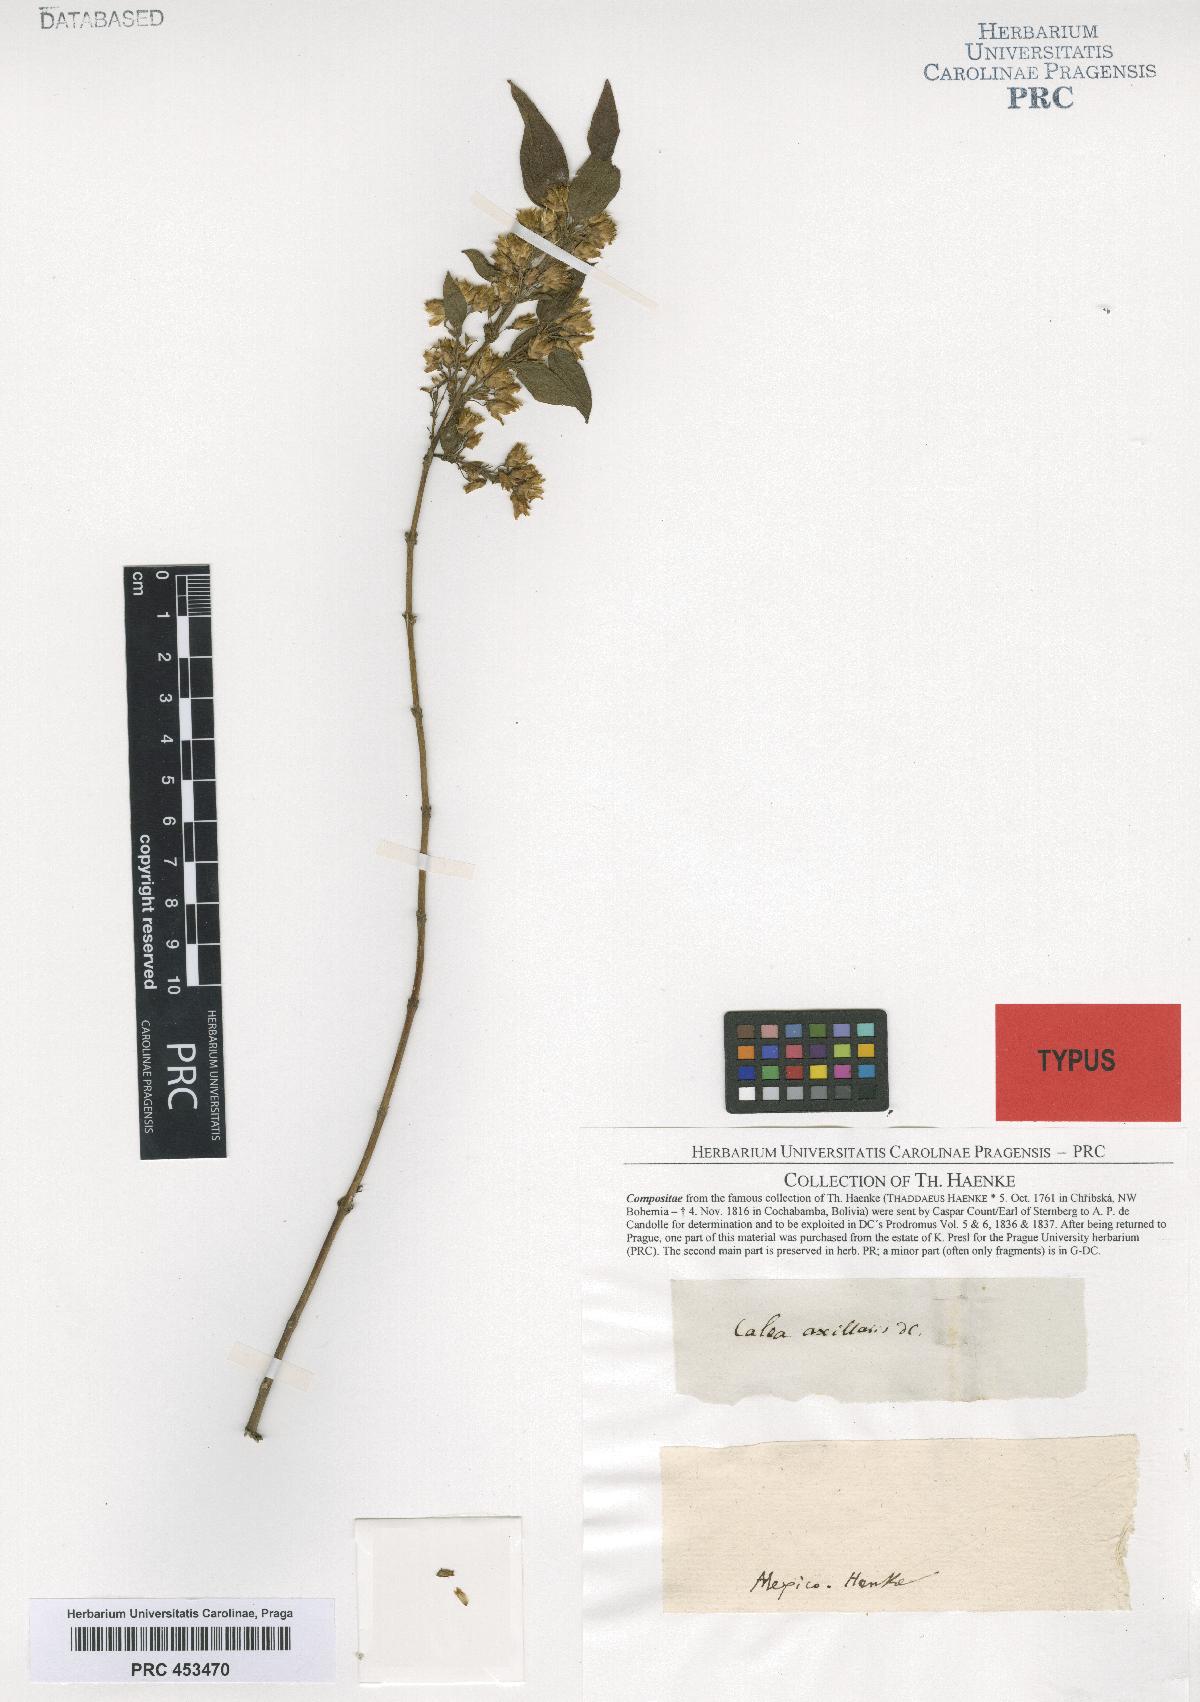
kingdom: Plantae
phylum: Tracheophyta
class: Magnoliopsida
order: Asterales
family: Asteraceae
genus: Calea
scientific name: Calea urticifolia
